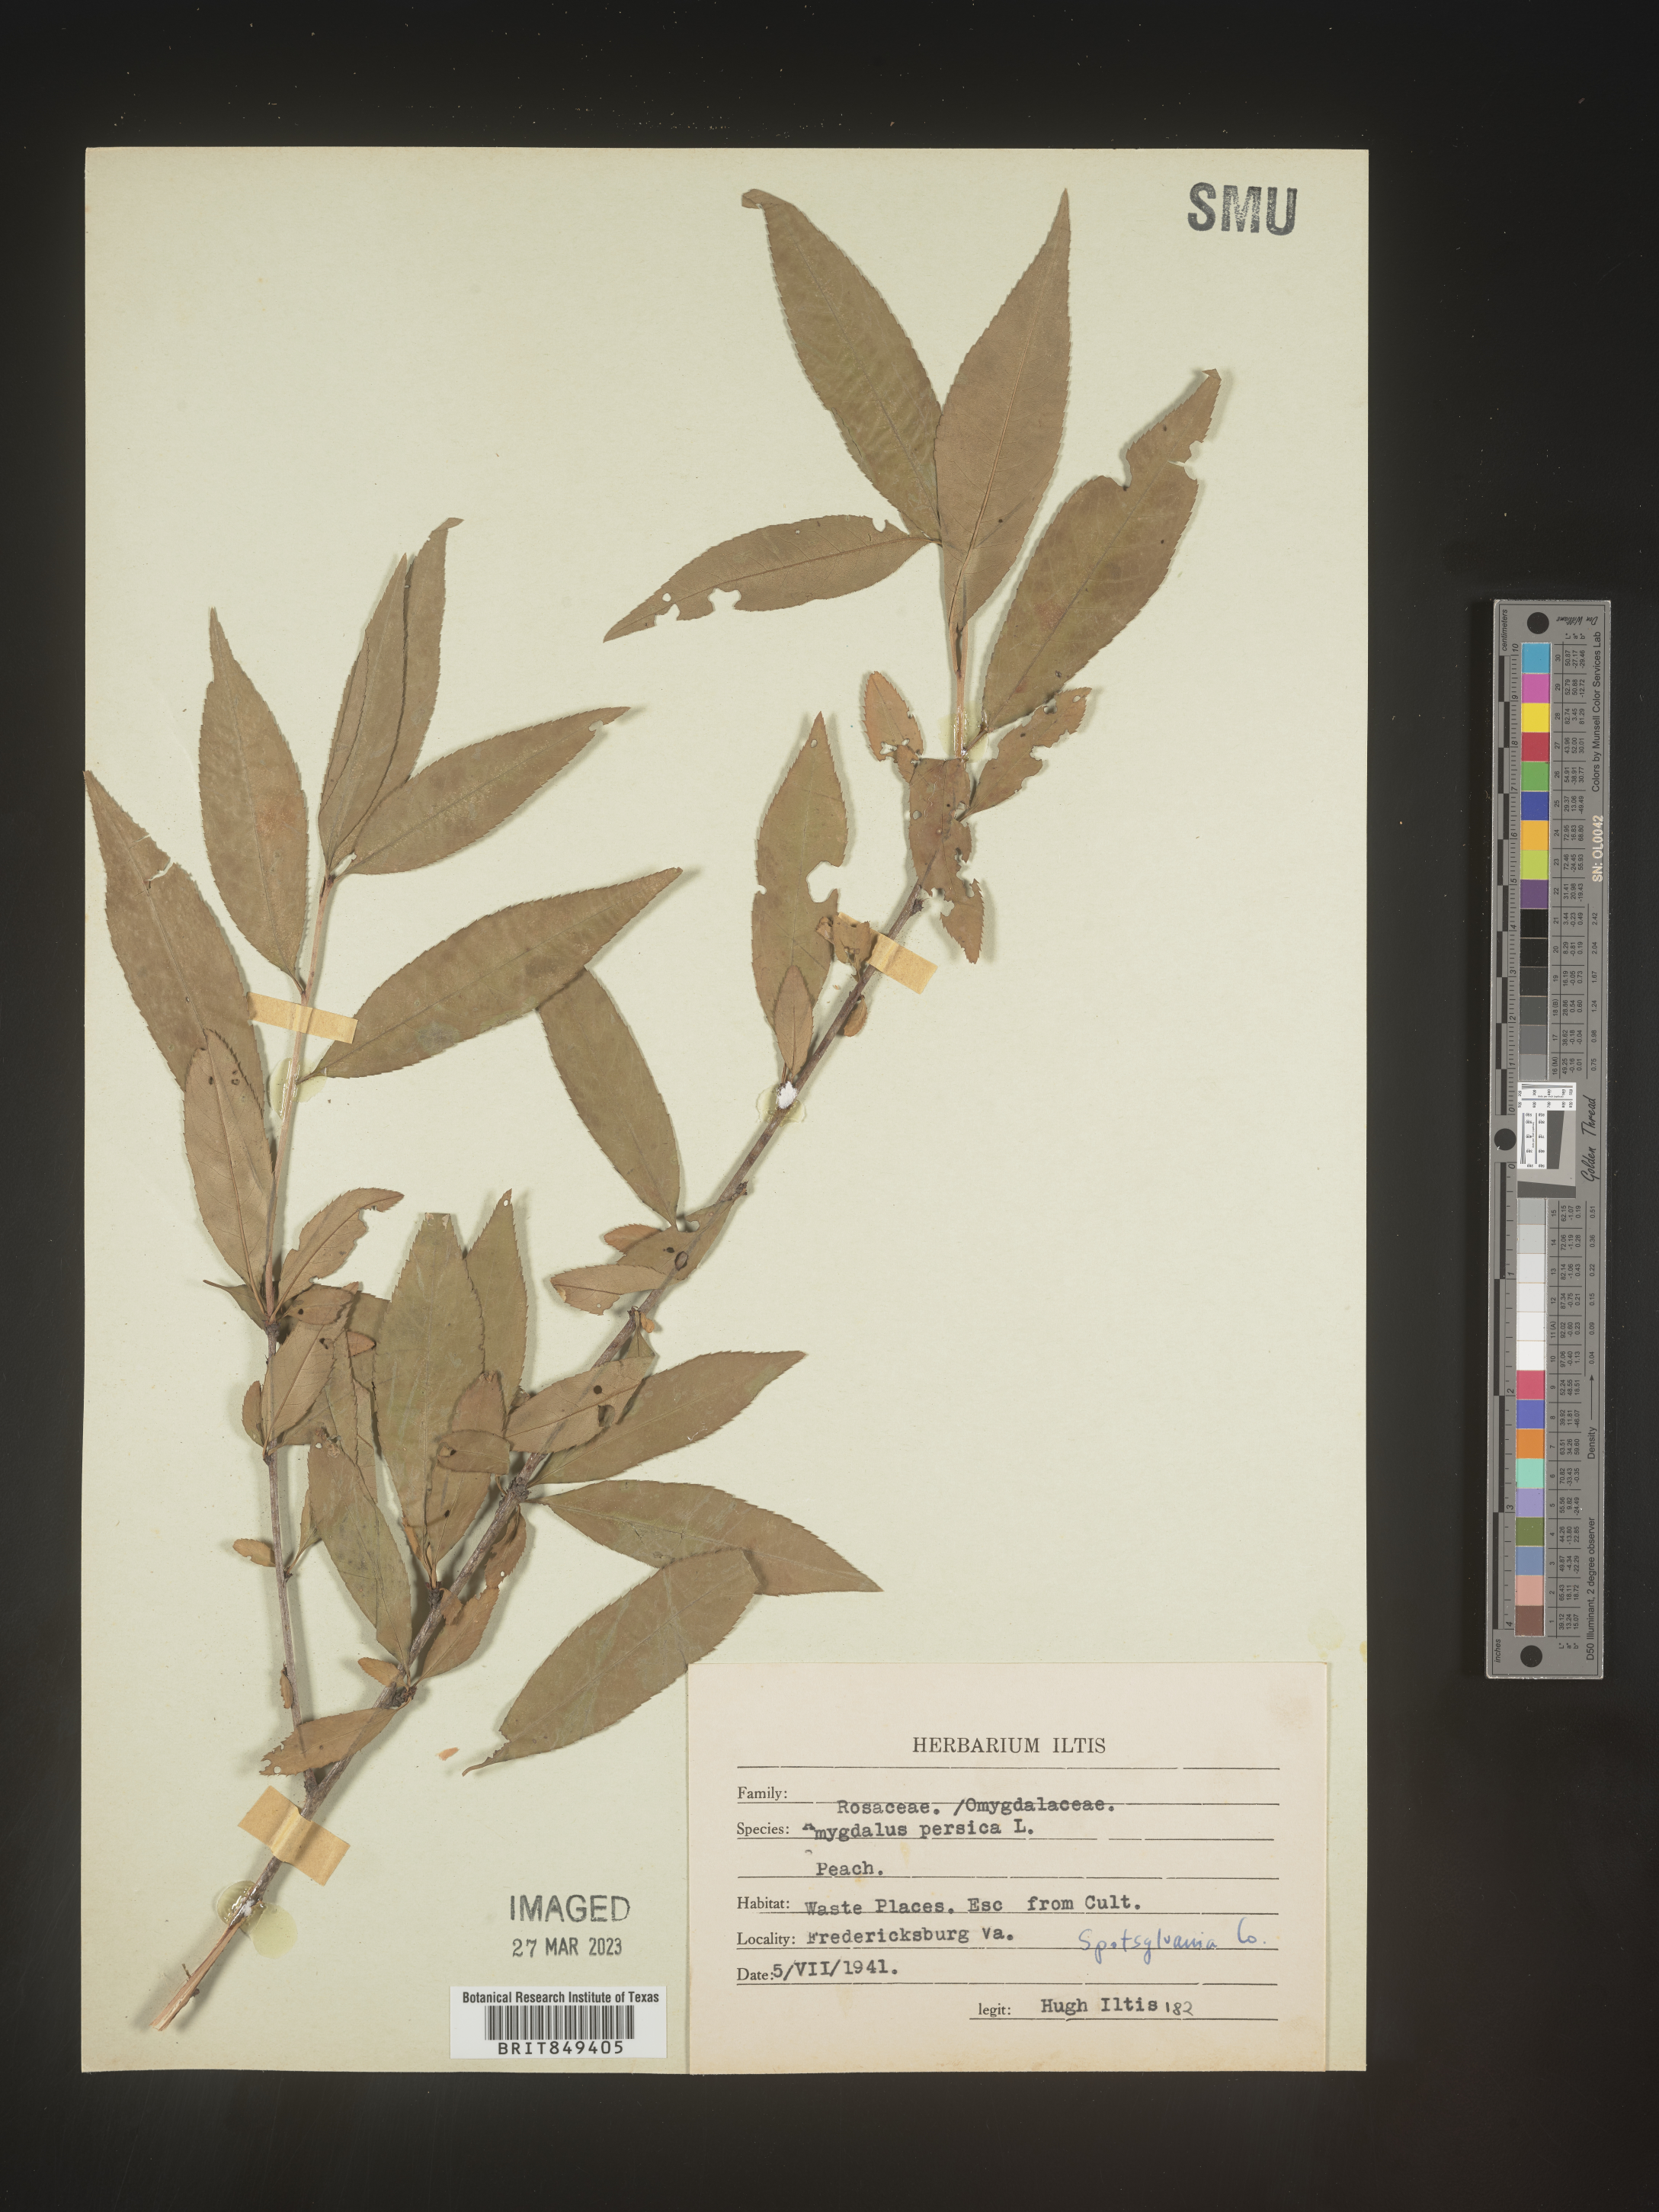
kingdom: Plantae
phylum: Tracheophyta
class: Magnoliopsida
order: Rosales
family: Rosaceae
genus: Prunus
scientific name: Prunus persica
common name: Peach
